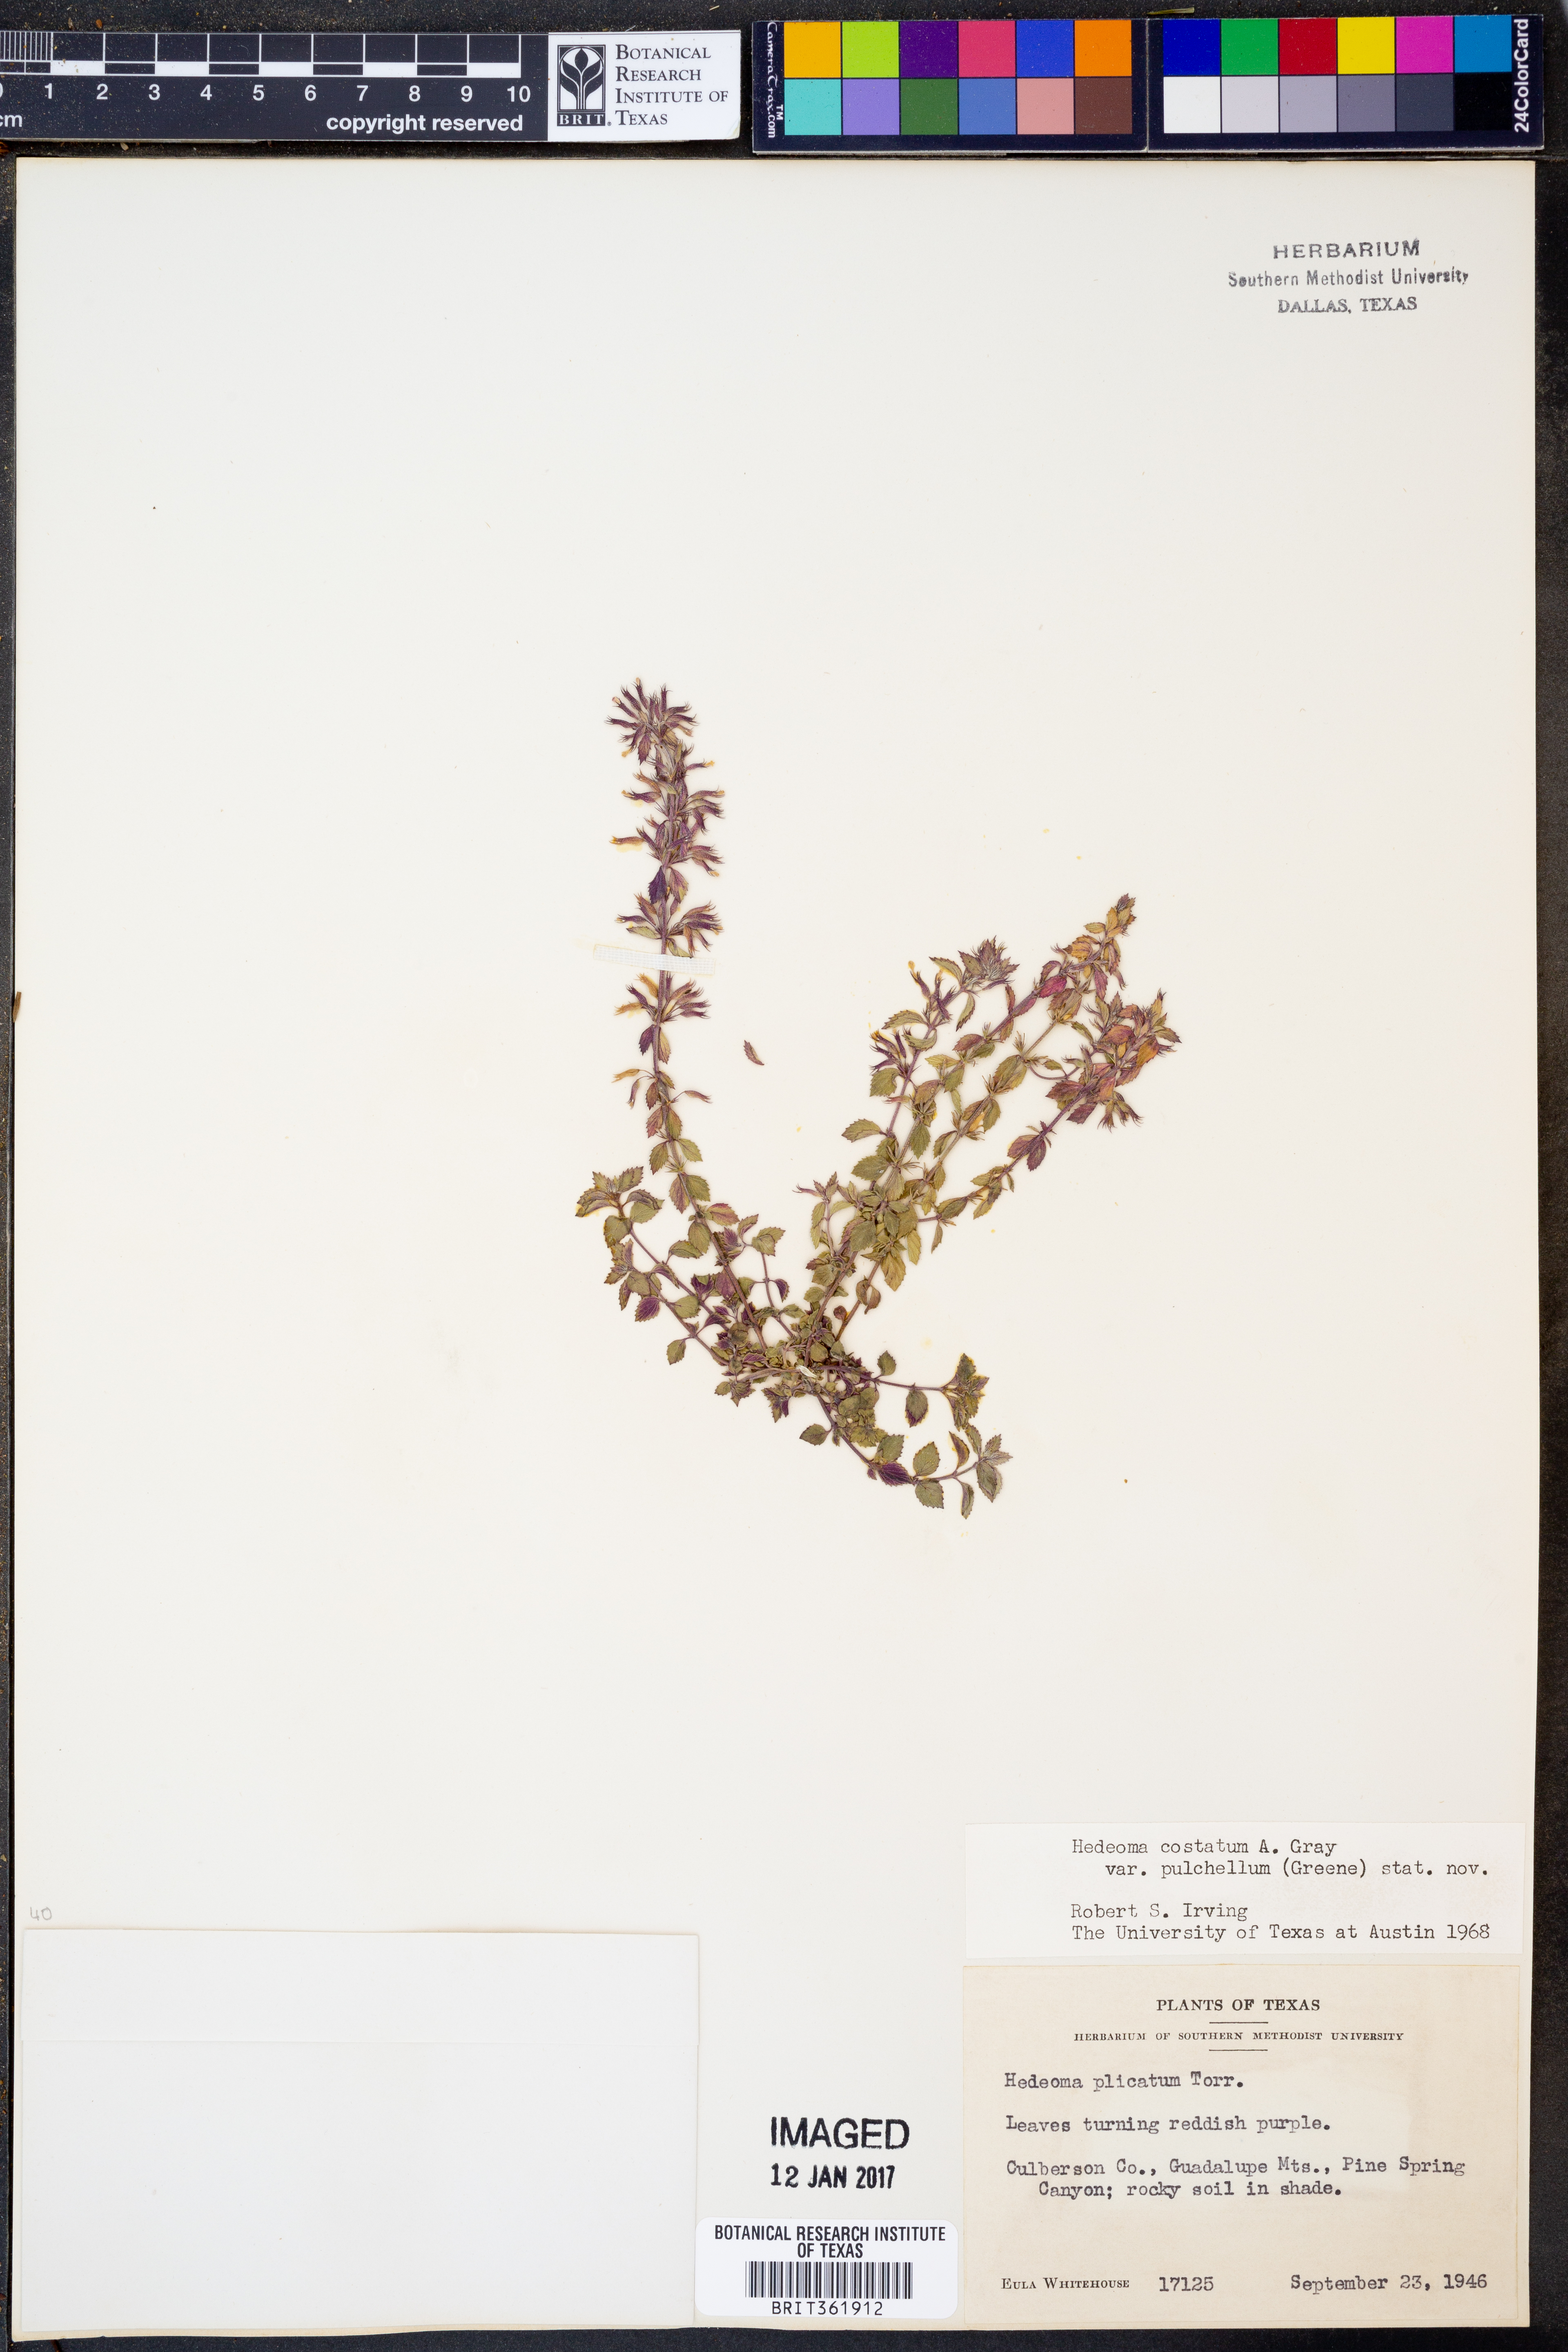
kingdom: Plantae
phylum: Tracheophyta
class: Magnoliopsida
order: Lamiales
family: Lamiaceae
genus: Hedeoma
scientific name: Hedeoma plicata
